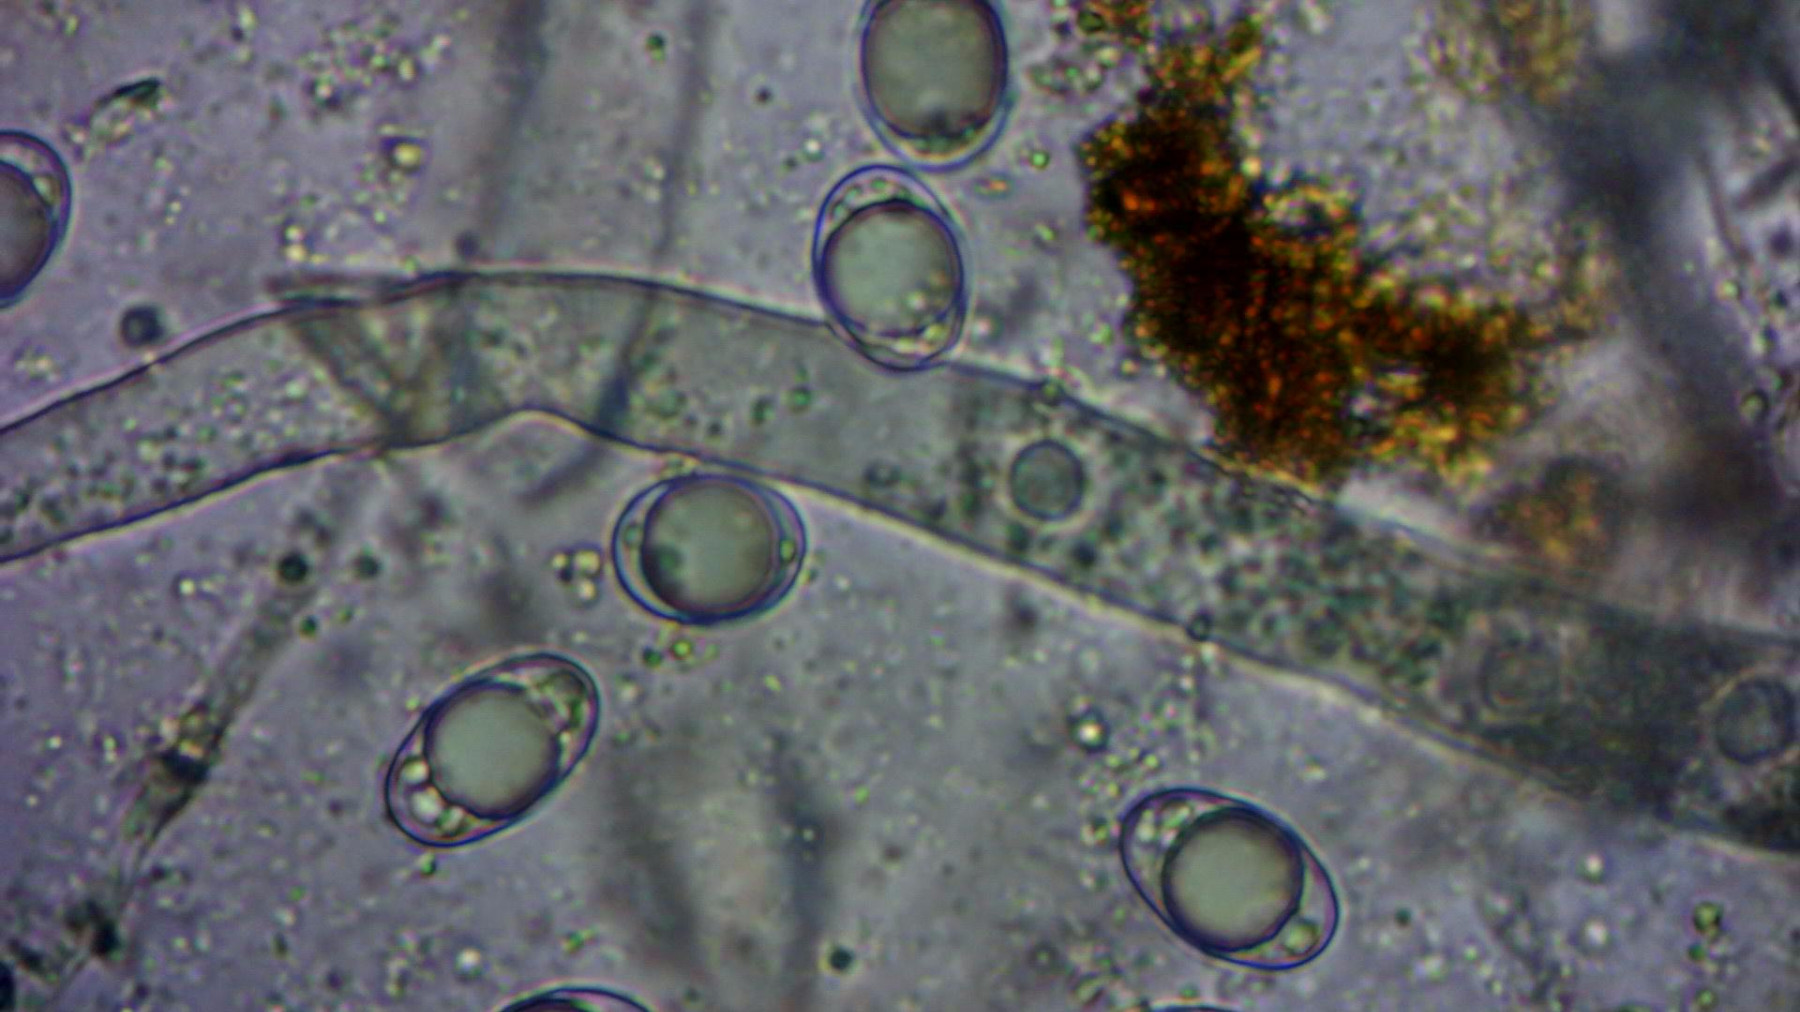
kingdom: Fungi
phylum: Ascomycota
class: Pezizomycetes
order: Pezizales
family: Helvellaceae
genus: Helvella
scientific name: Helvella solitaria
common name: Quélets foldhat
